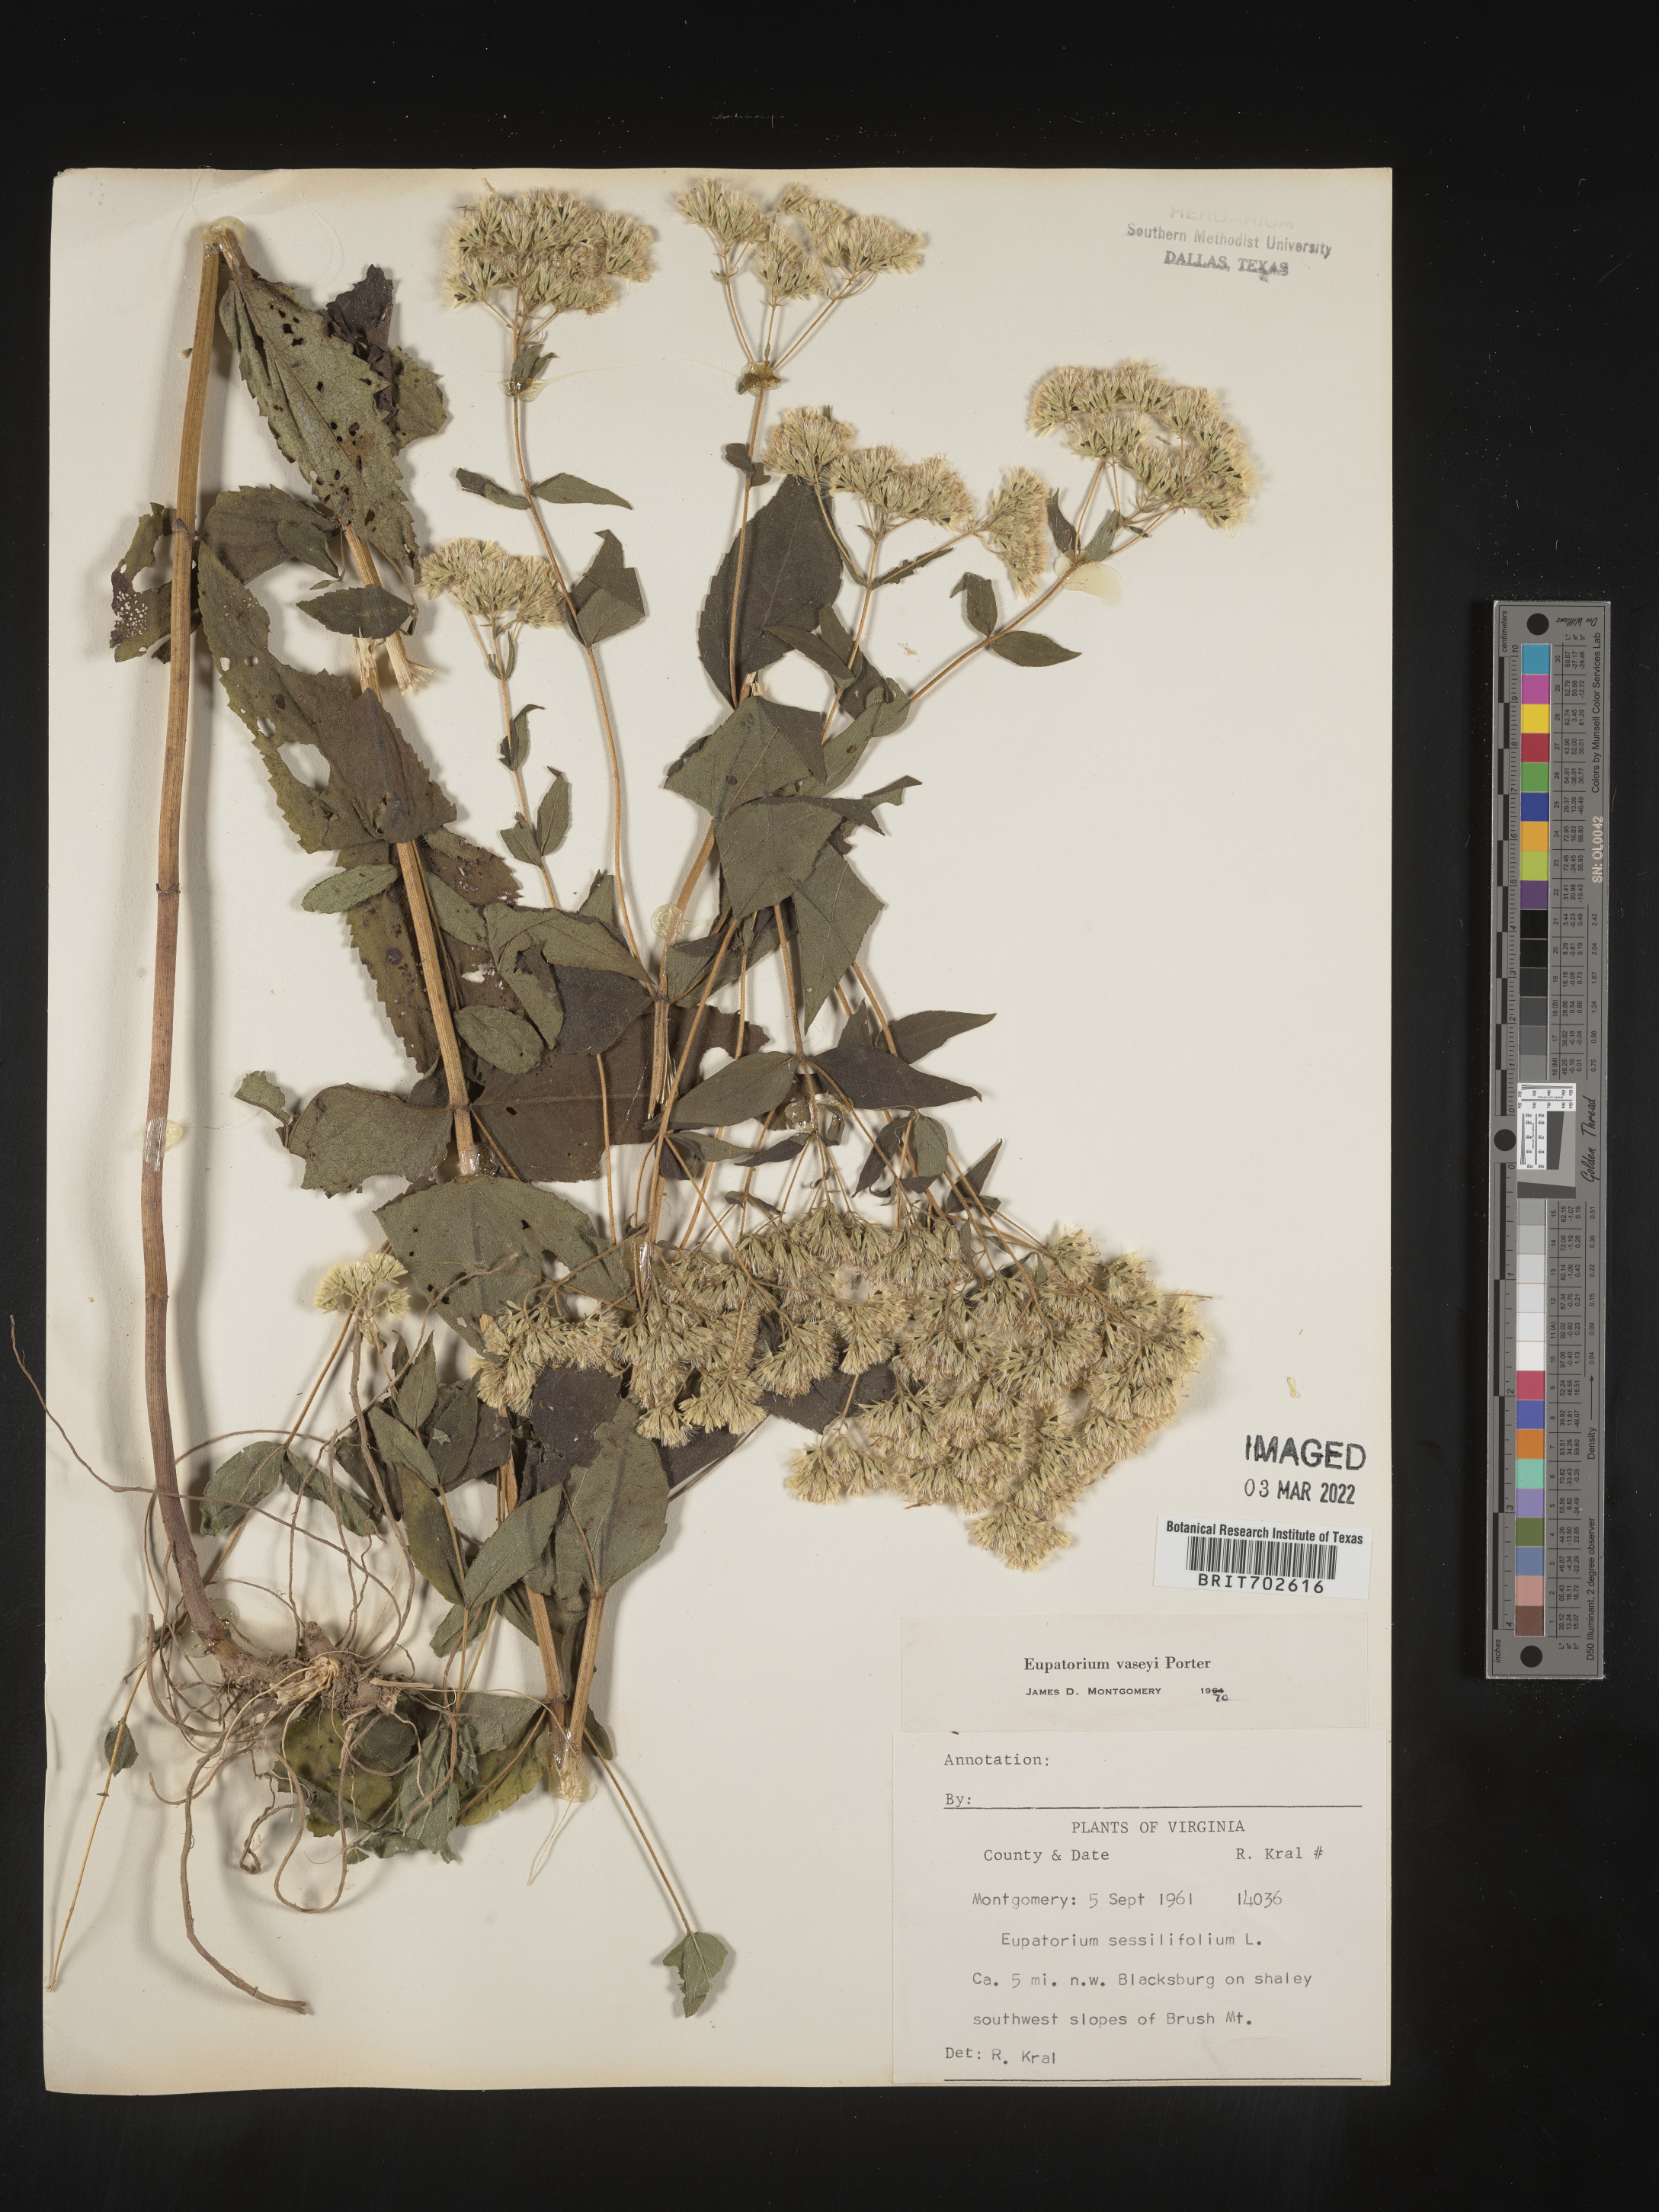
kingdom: Plantae
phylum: Tracheophyta
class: Magnoliopsida
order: Asterales
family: Asteraceae
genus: Eupatorium
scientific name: Eupatorium sessilifolium
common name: Upland boneset
